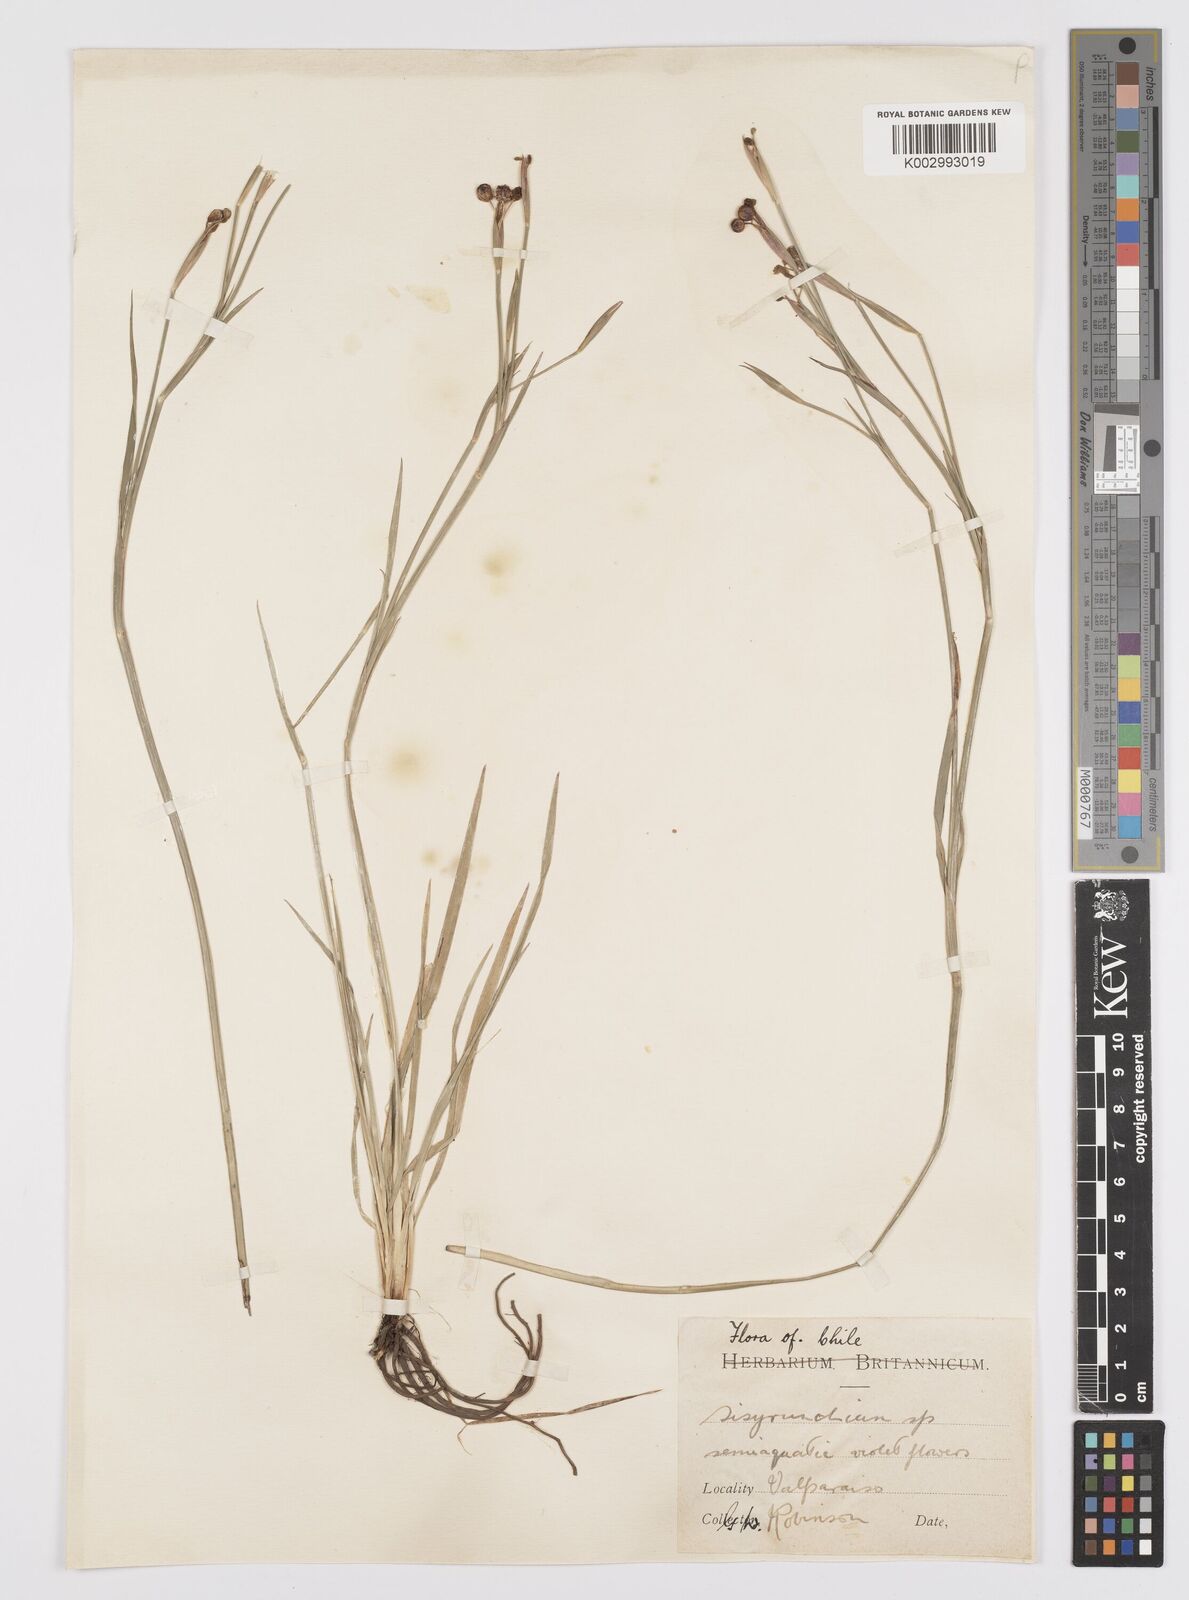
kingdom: Plantae
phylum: Tracheophyta
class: Liliopsida
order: Asparagales
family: Iridaceae
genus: Sisyrinchium
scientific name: Sisyrinchium
